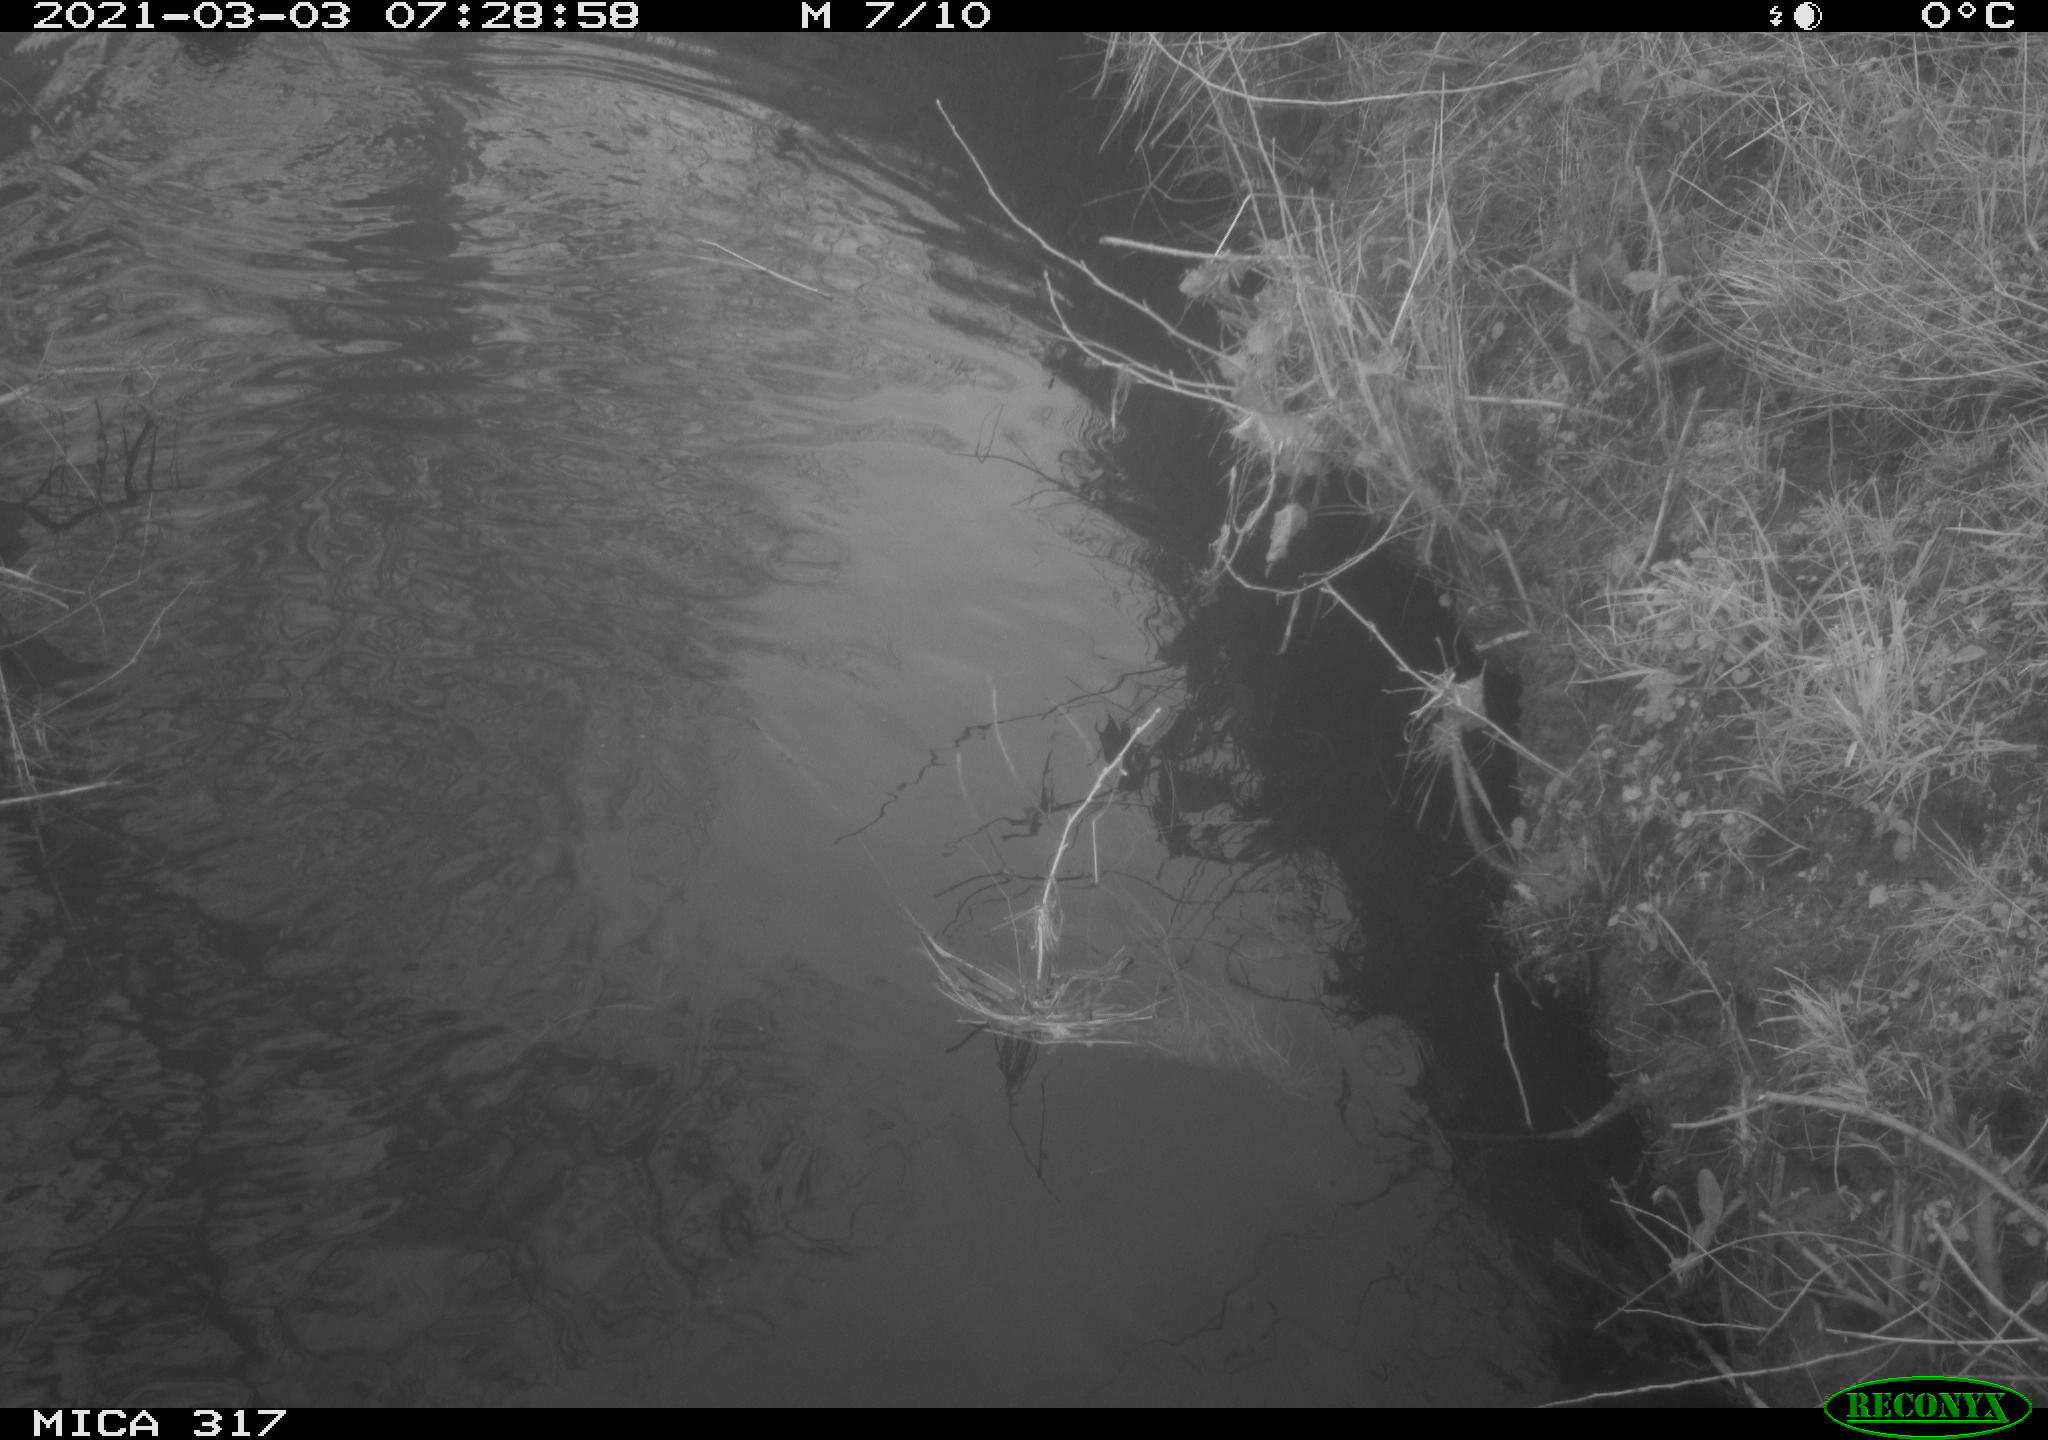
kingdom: Animalia
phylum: Chordata
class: Aves
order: Gruiformes
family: Rallidae
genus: Fulica
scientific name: Fulica atra
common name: Eurasian coot
